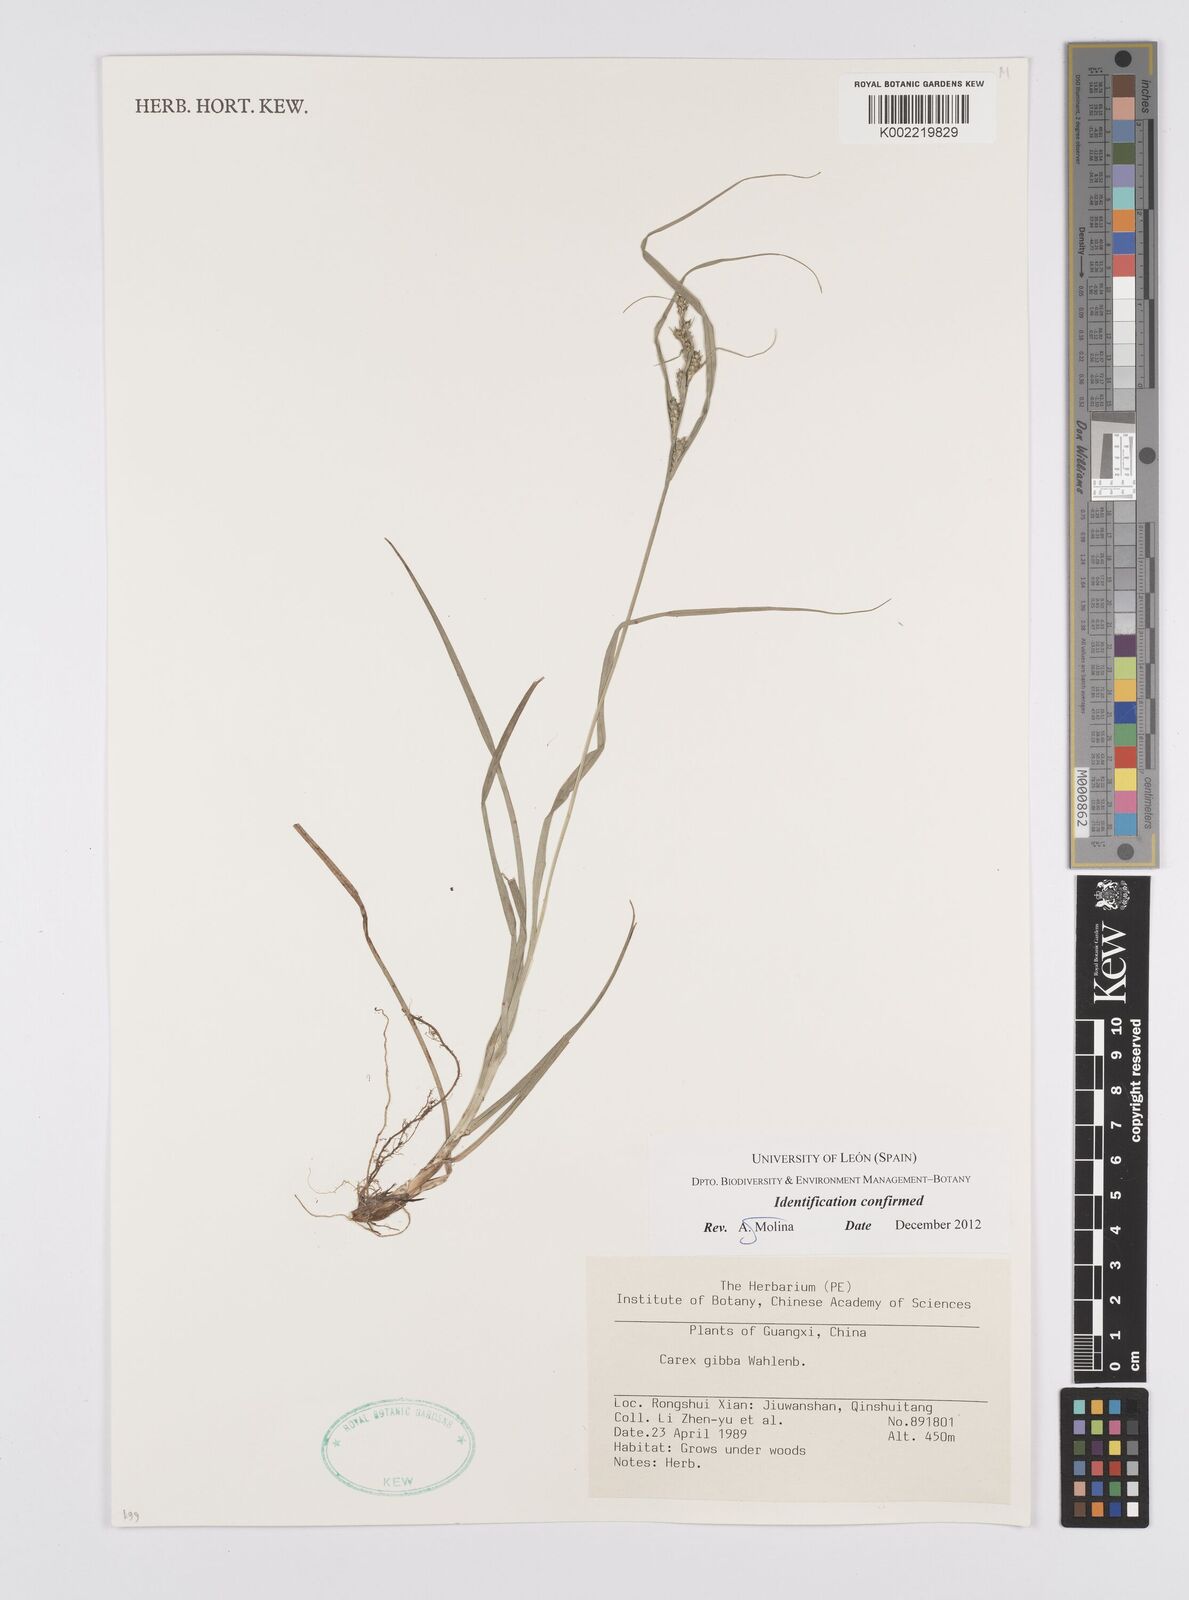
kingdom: Plantae
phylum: Tracheophyta
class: Liliopsida
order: Poales
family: Cyperaceae
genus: Carex
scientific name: Carex gibba
